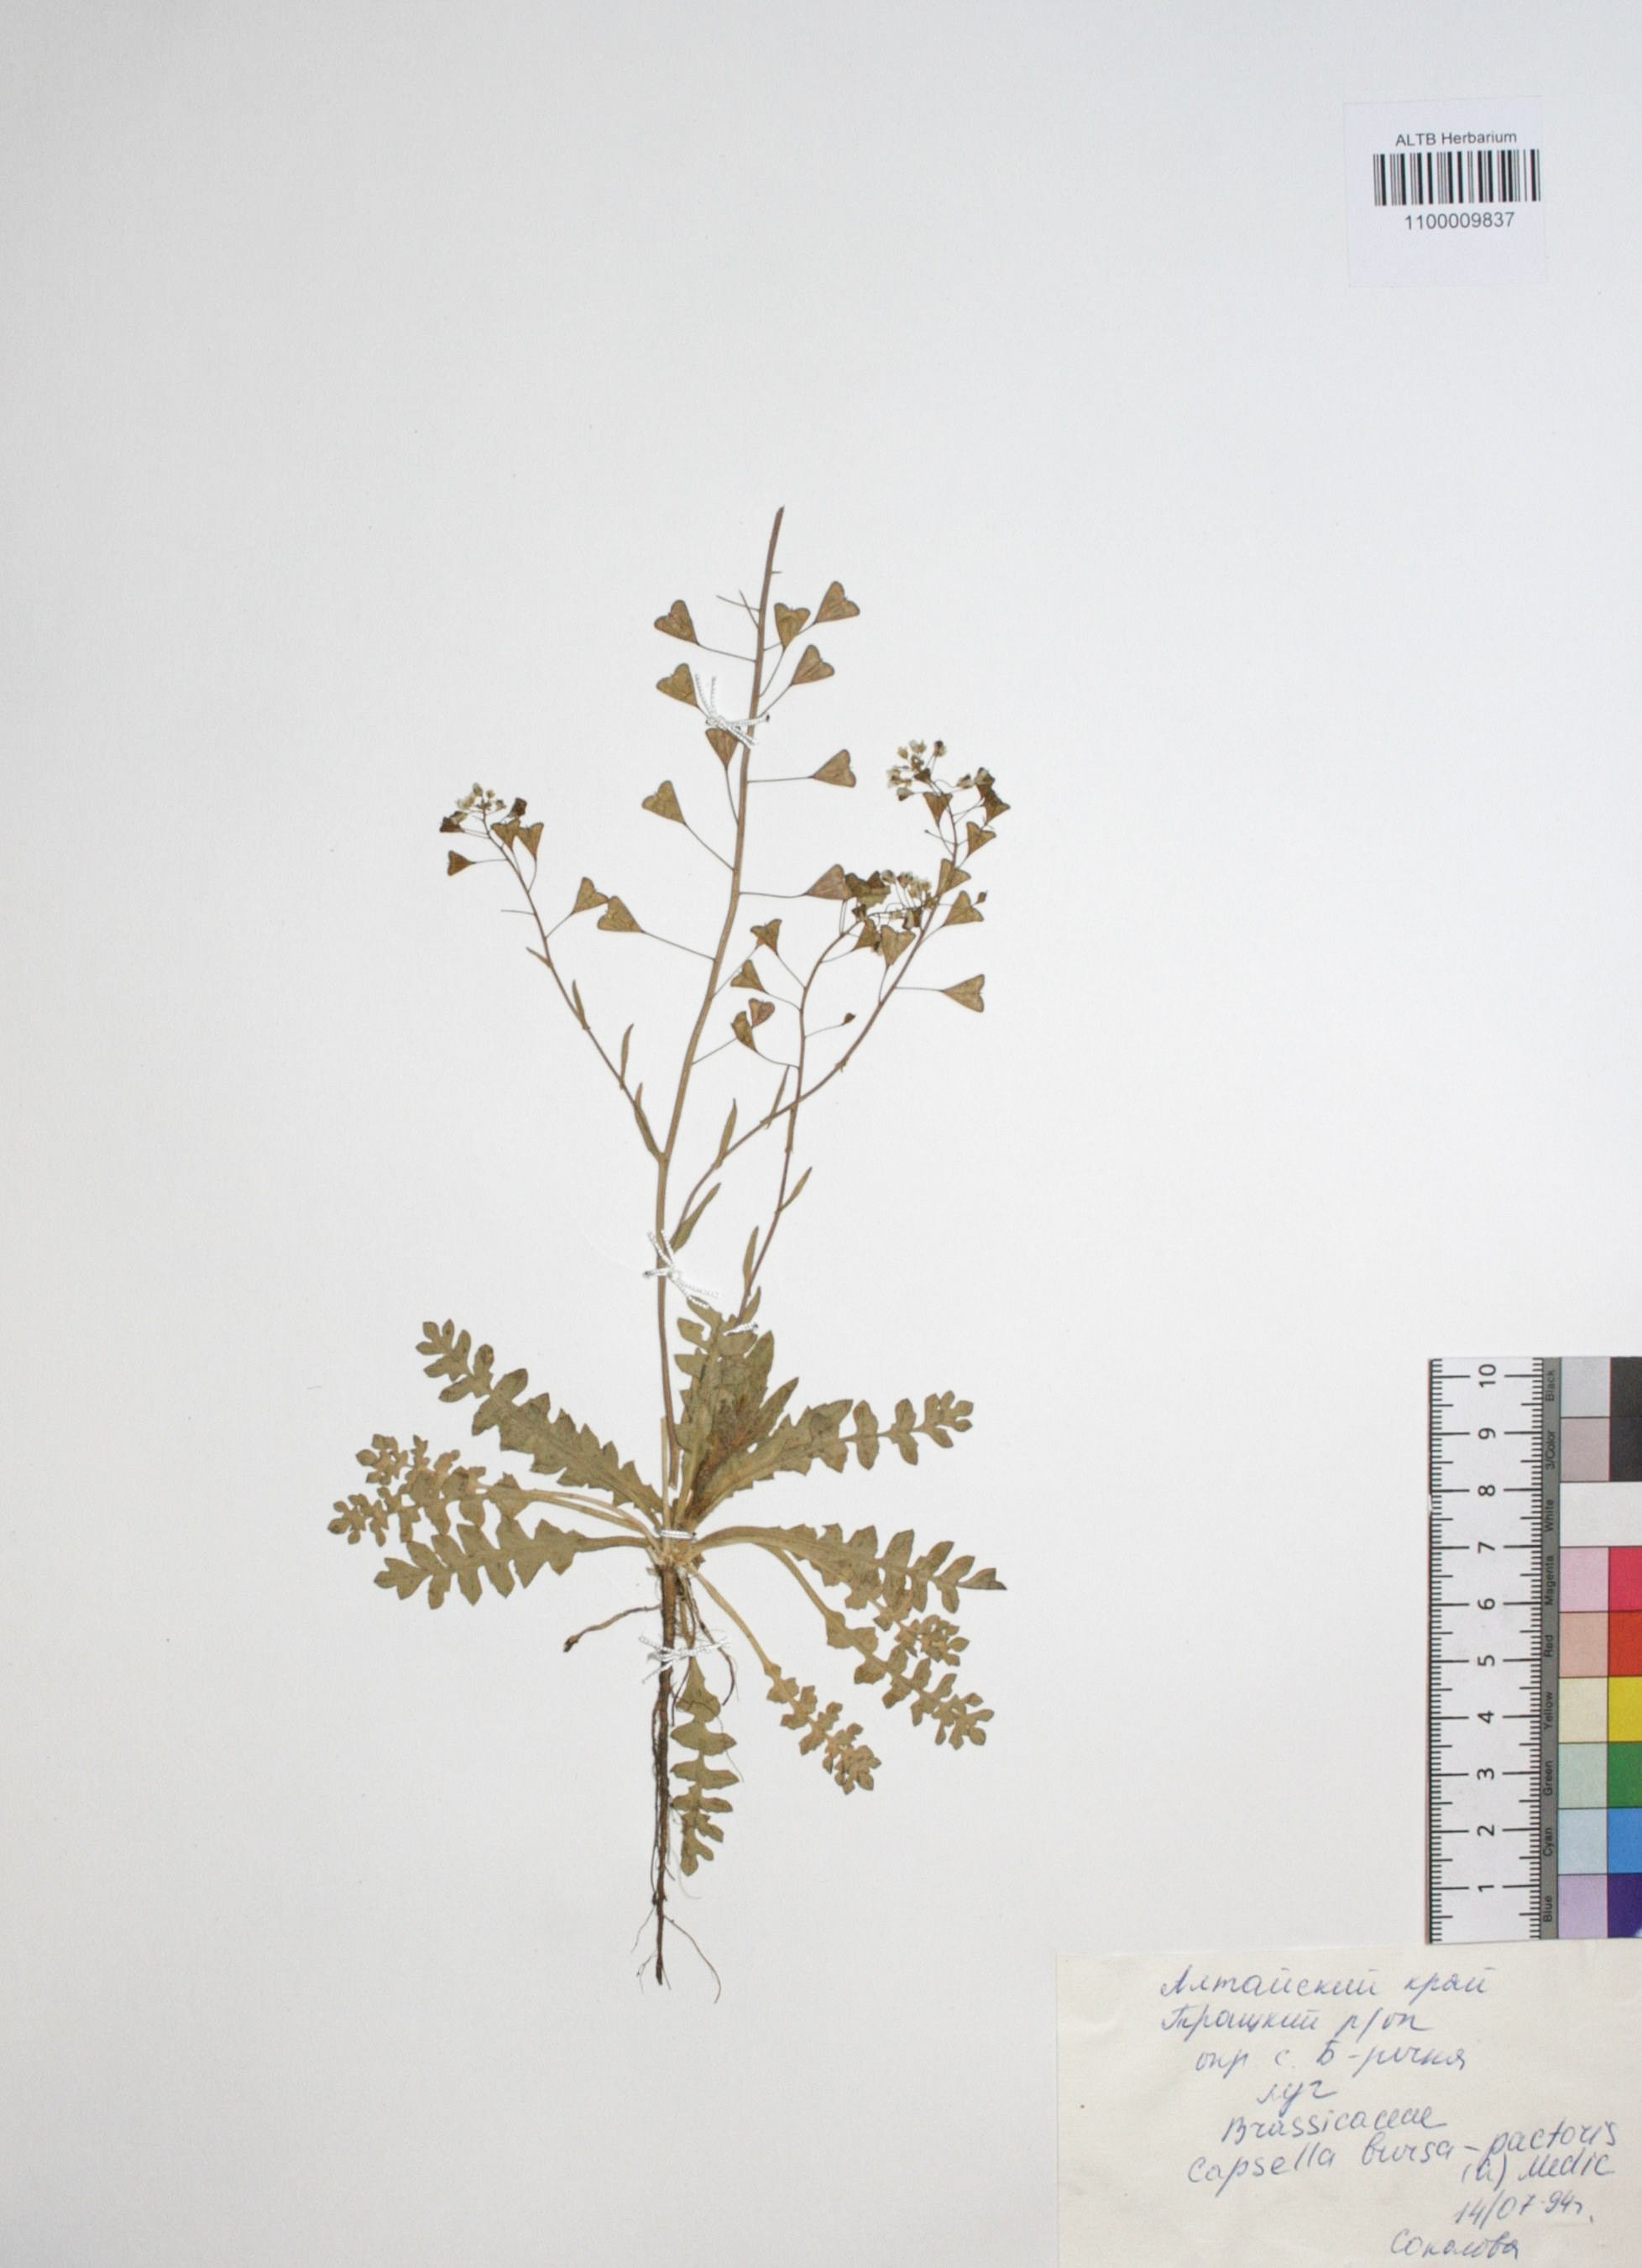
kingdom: Plantae
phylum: Tracheophyta
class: Magnoliopsida
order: Brassicales
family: Brassicaceae
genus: Capsella
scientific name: Capsella bursa-pastoris
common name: Shepherd's purse
